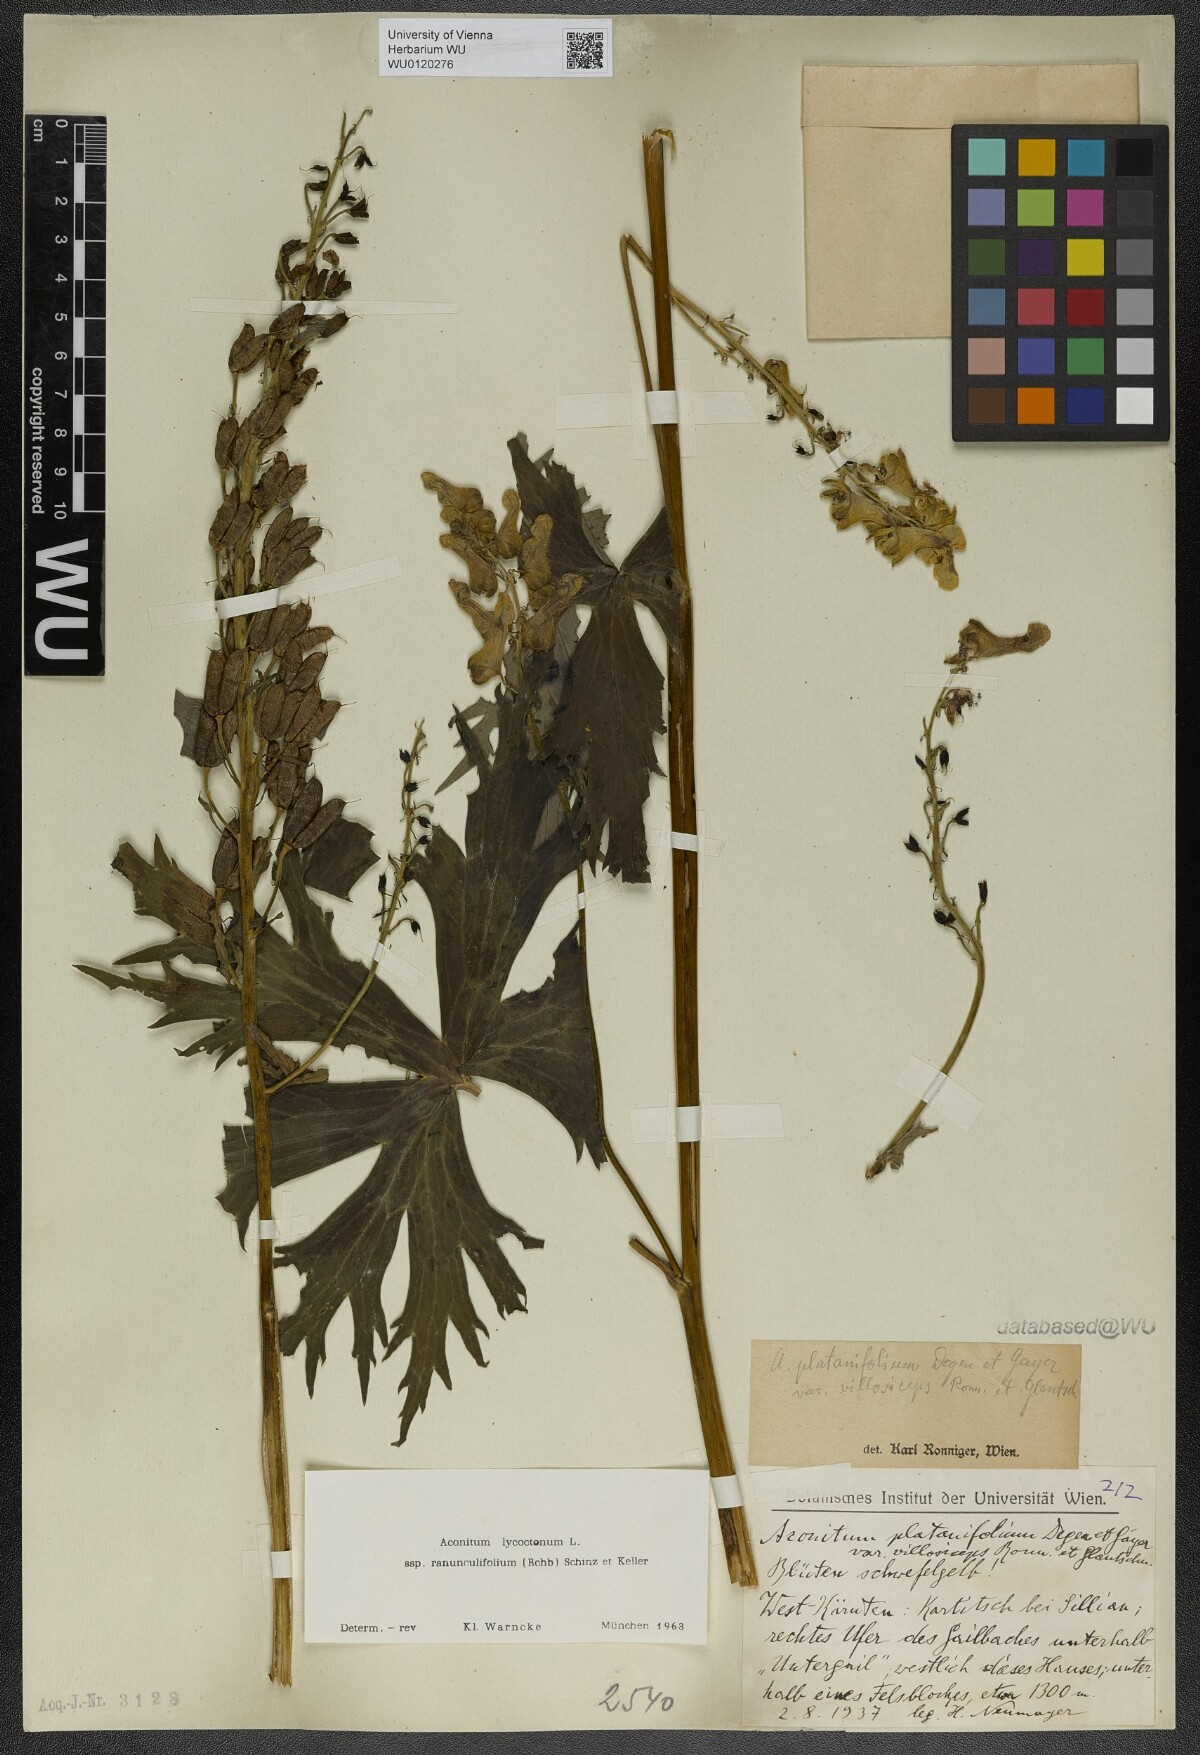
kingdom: Plantae
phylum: Tracheophyta
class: Magnoliopsida
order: Ranunculales
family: Ranunculaceae
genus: Aconitum
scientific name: Aconitum lycoctonum
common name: Wolf's-bane
